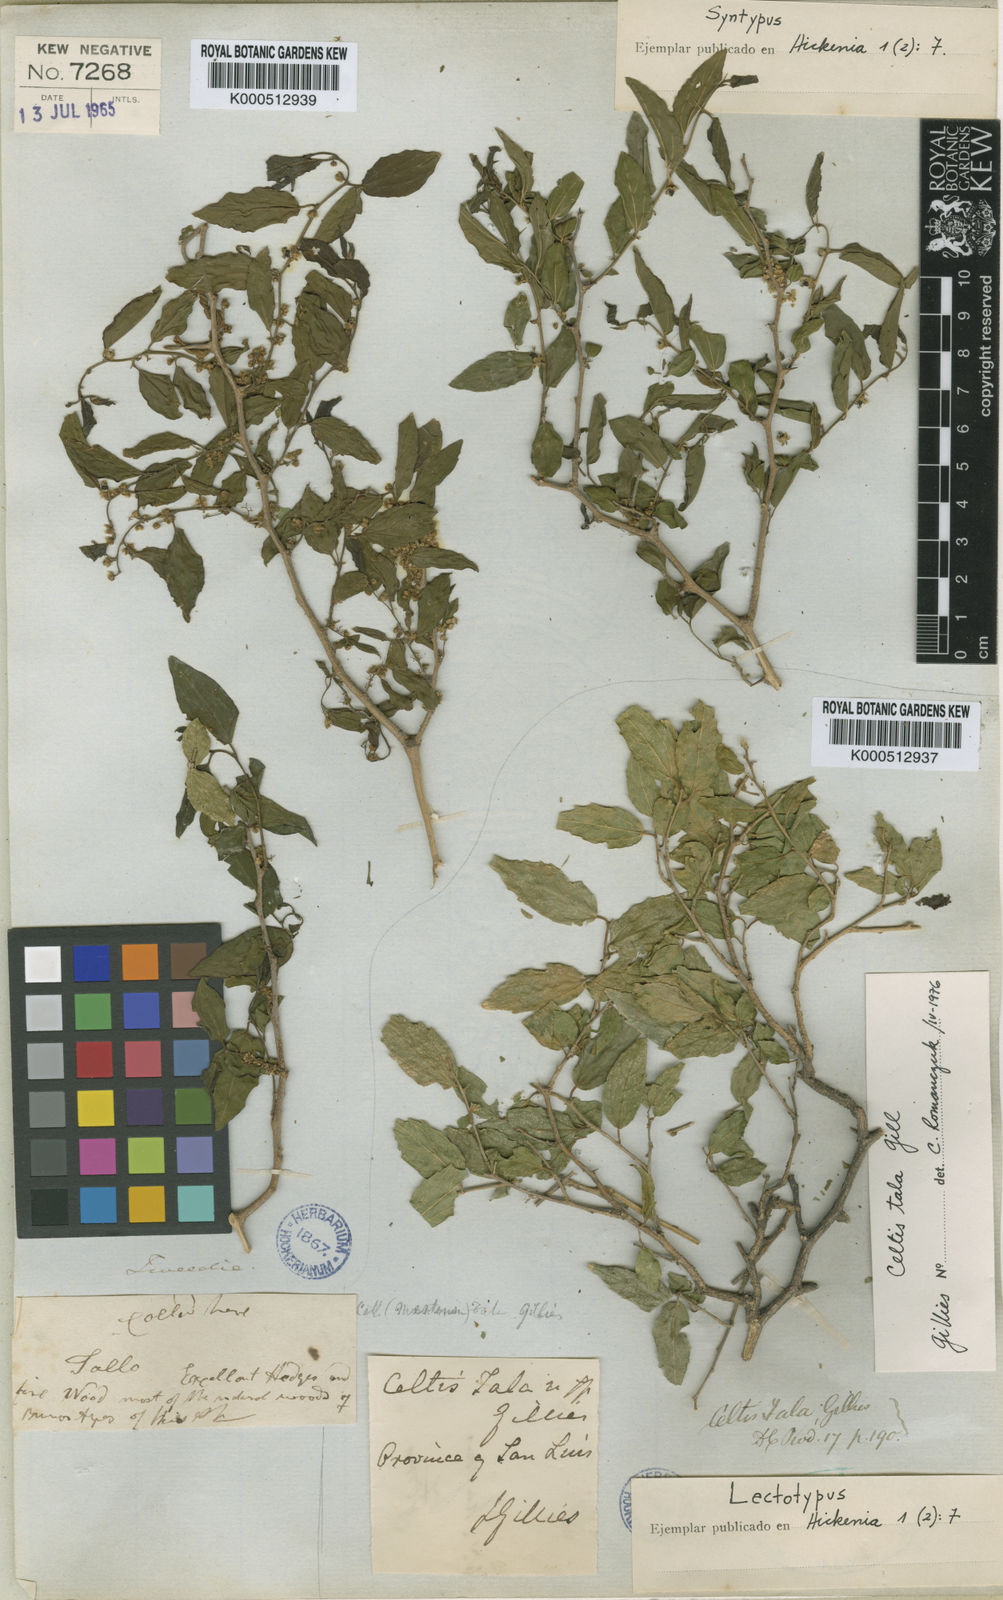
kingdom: Plantae
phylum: Tracheophyta
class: Magnoliopsida
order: Rosales
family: Cannabaceae
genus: Celtis
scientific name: Celtis iguanaea
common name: Iguana hackberry
